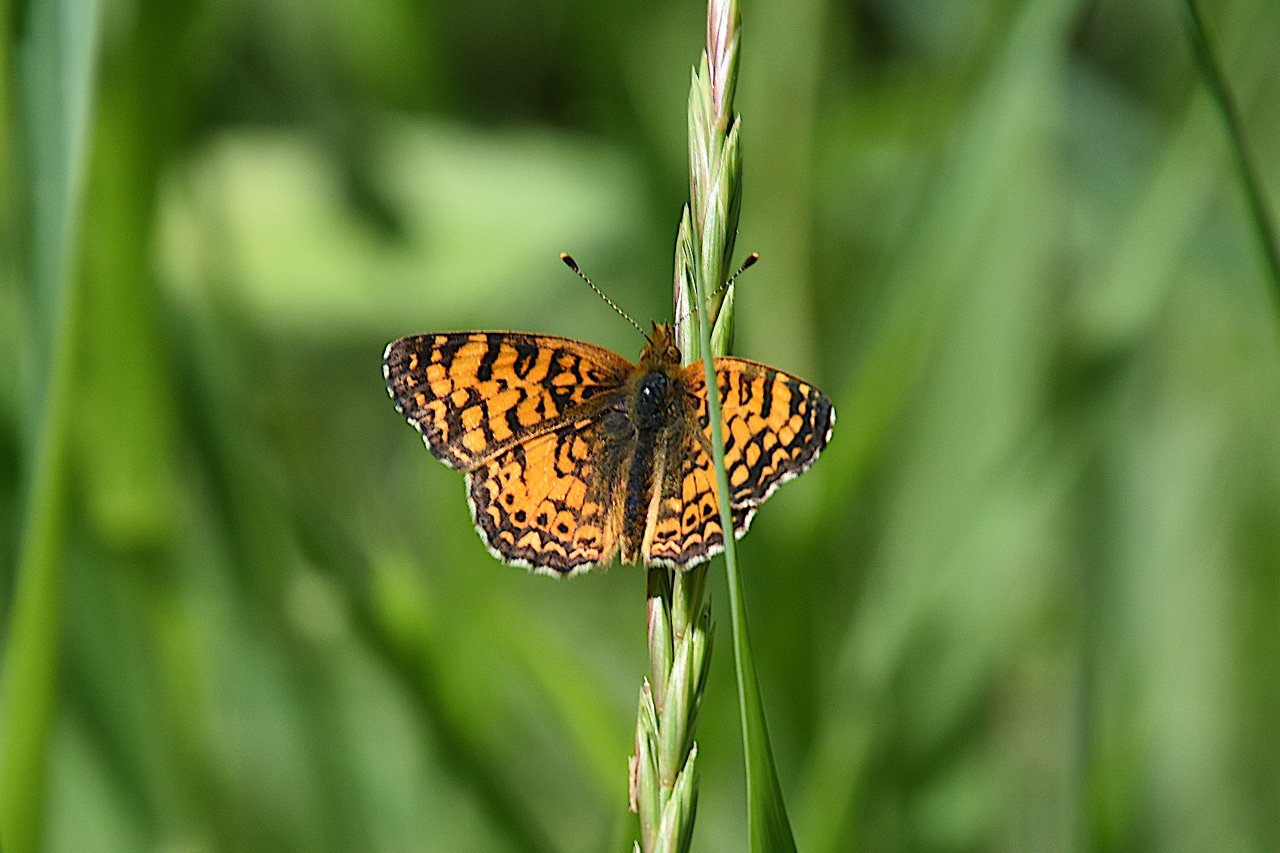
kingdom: Animalia
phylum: Arthropoda
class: Insecta
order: Lepidoptera
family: Nymphalidae
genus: Eresia
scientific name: Eresia aveyrona
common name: Mylitta Crescent
